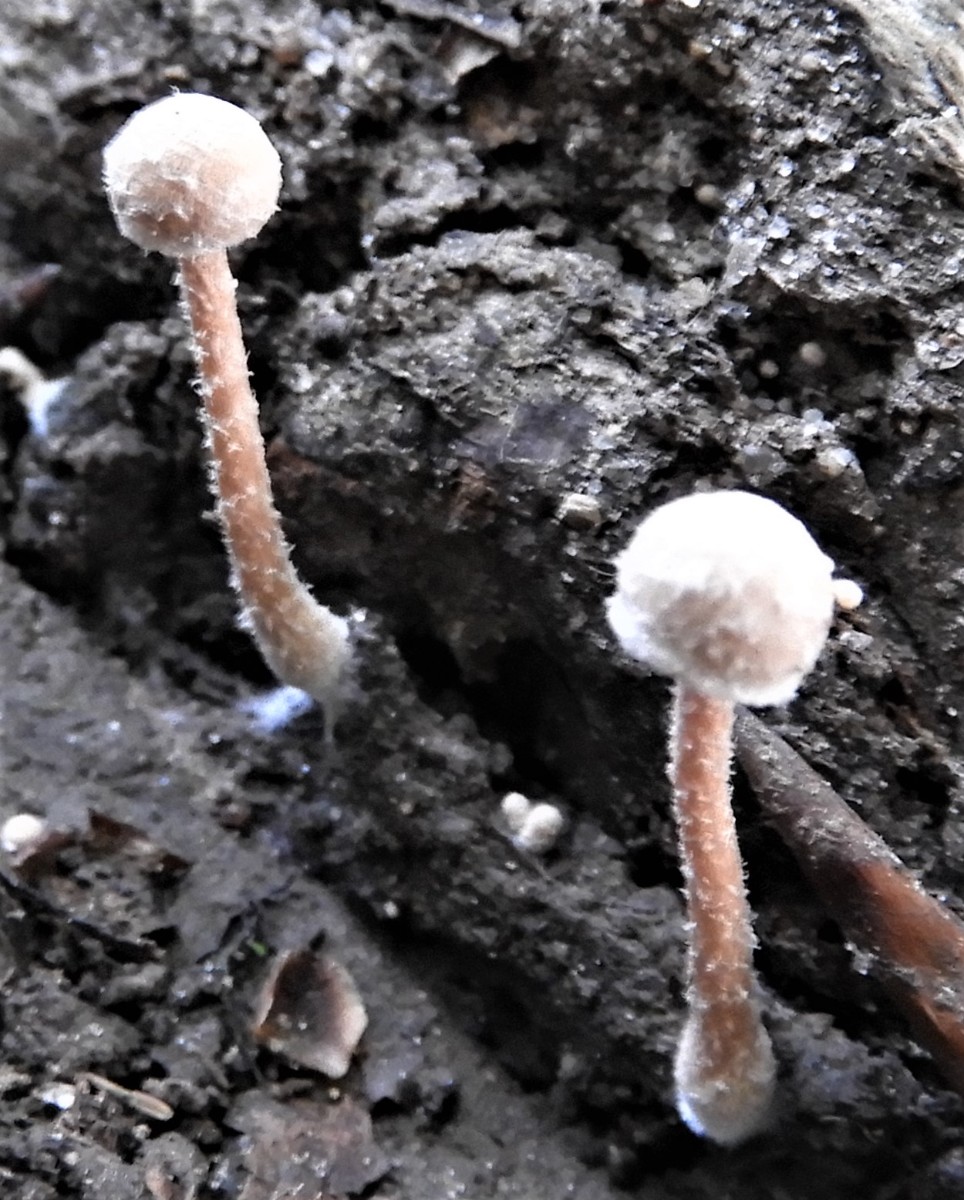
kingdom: Fungi
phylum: Basidiomycota
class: Agaricomycetes
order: Agaricales
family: Tubariaceae
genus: Tubaria
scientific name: Tubaria conspersa
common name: bleg fnughat
